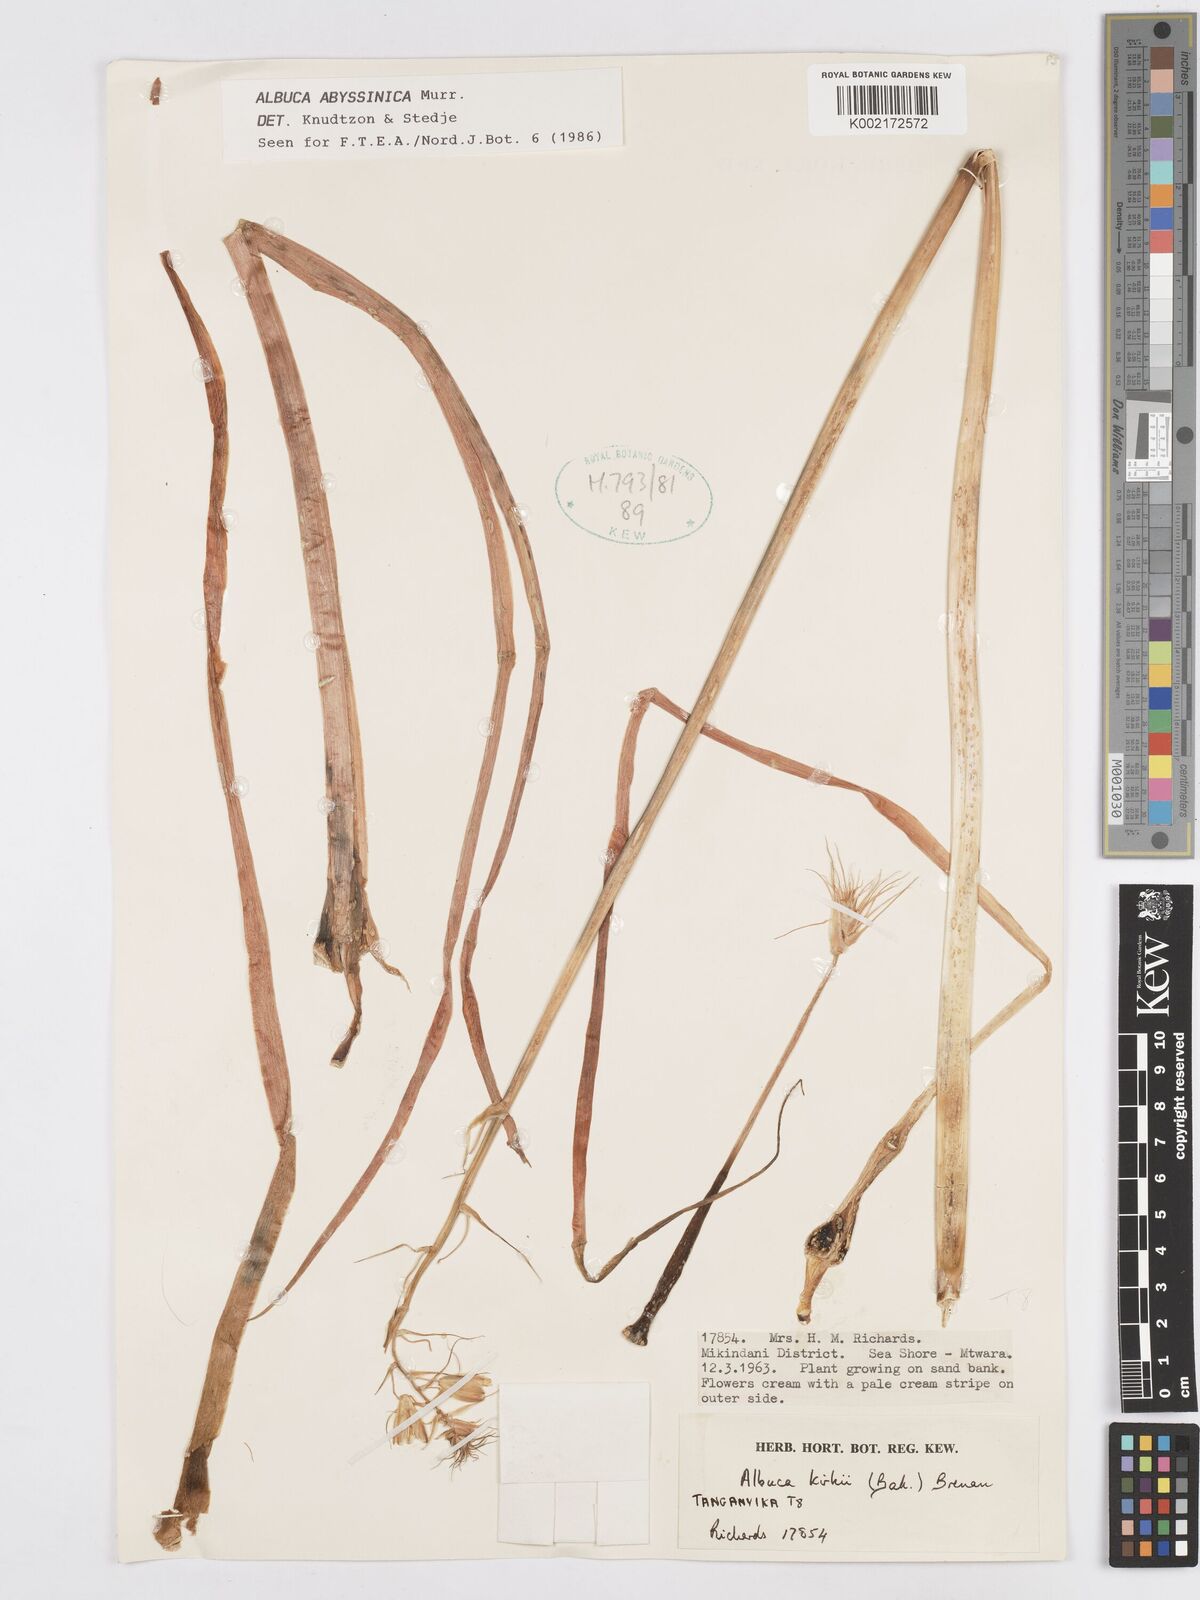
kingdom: Plantae
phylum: Tracheophyta
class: Liliopsida
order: Asparagales
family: Asparagaceae
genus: Albuca
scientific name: Albuca abyssinica
